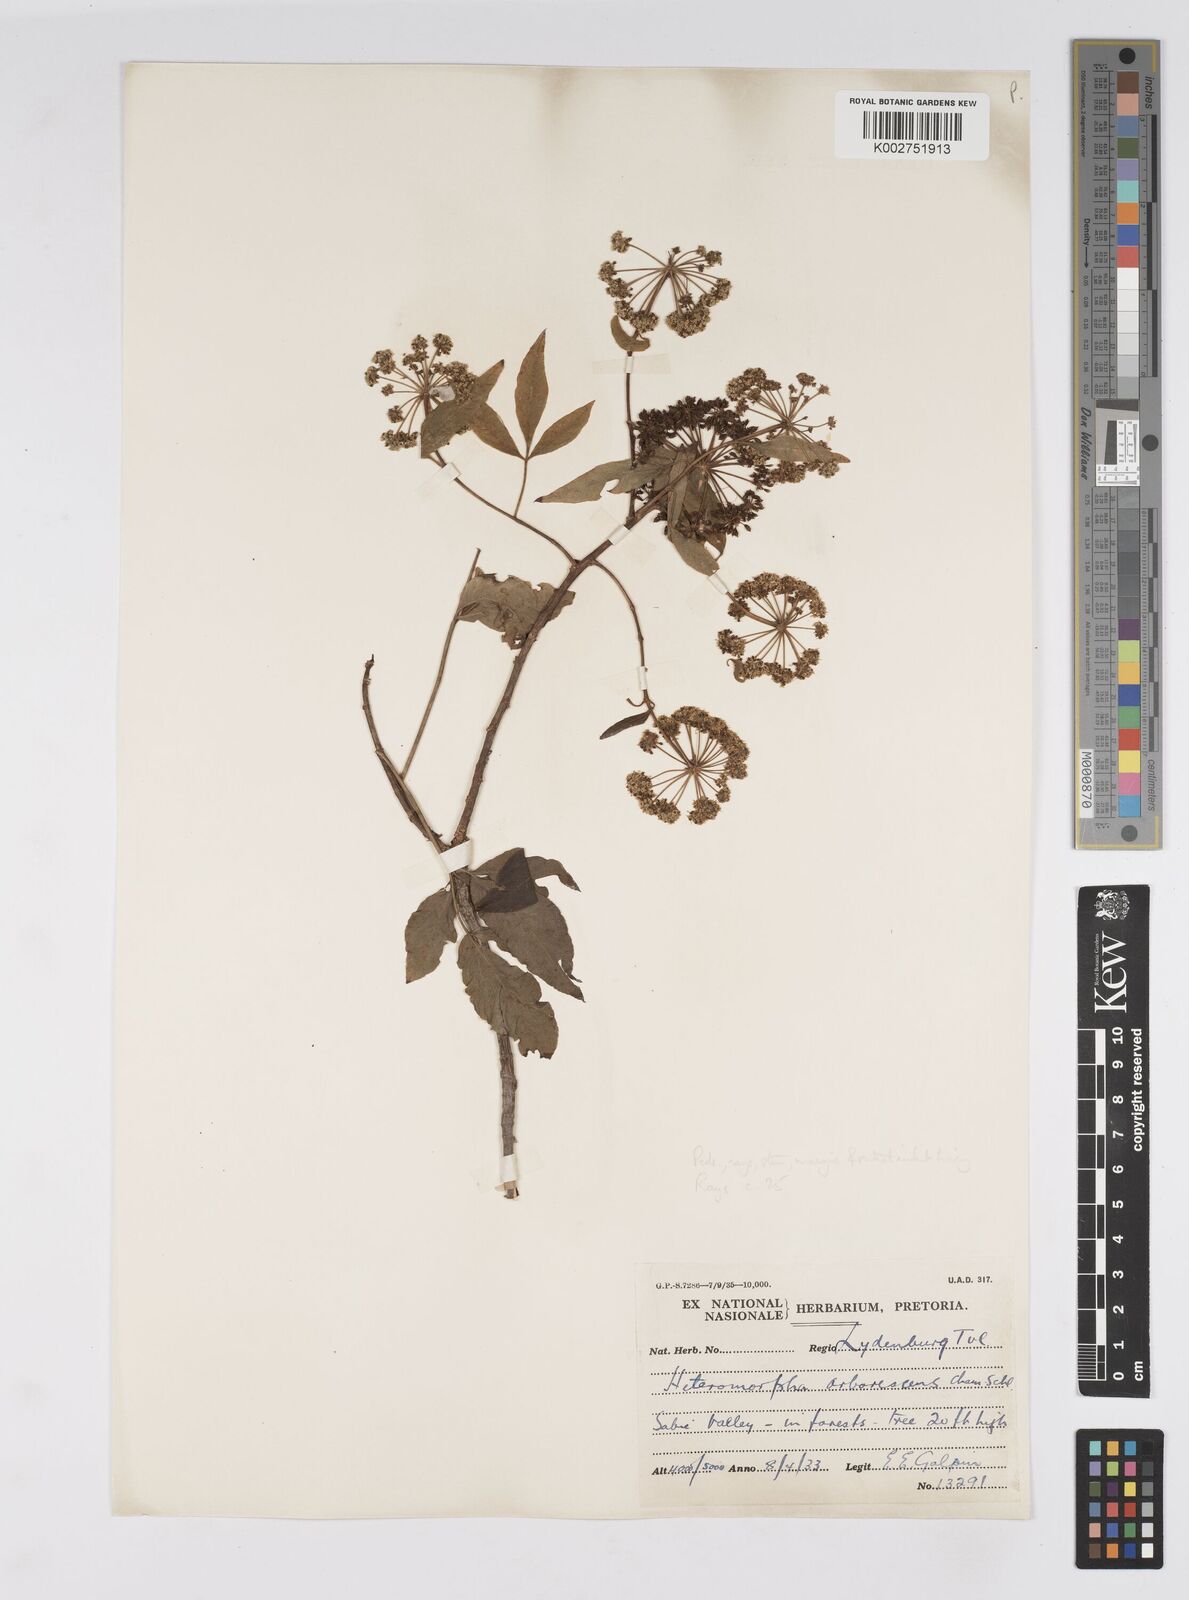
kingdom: Plantae
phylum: Tracheophyta
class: Magnoliopsida
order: Apiales
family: Apiaceae
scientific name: Apiaceae
